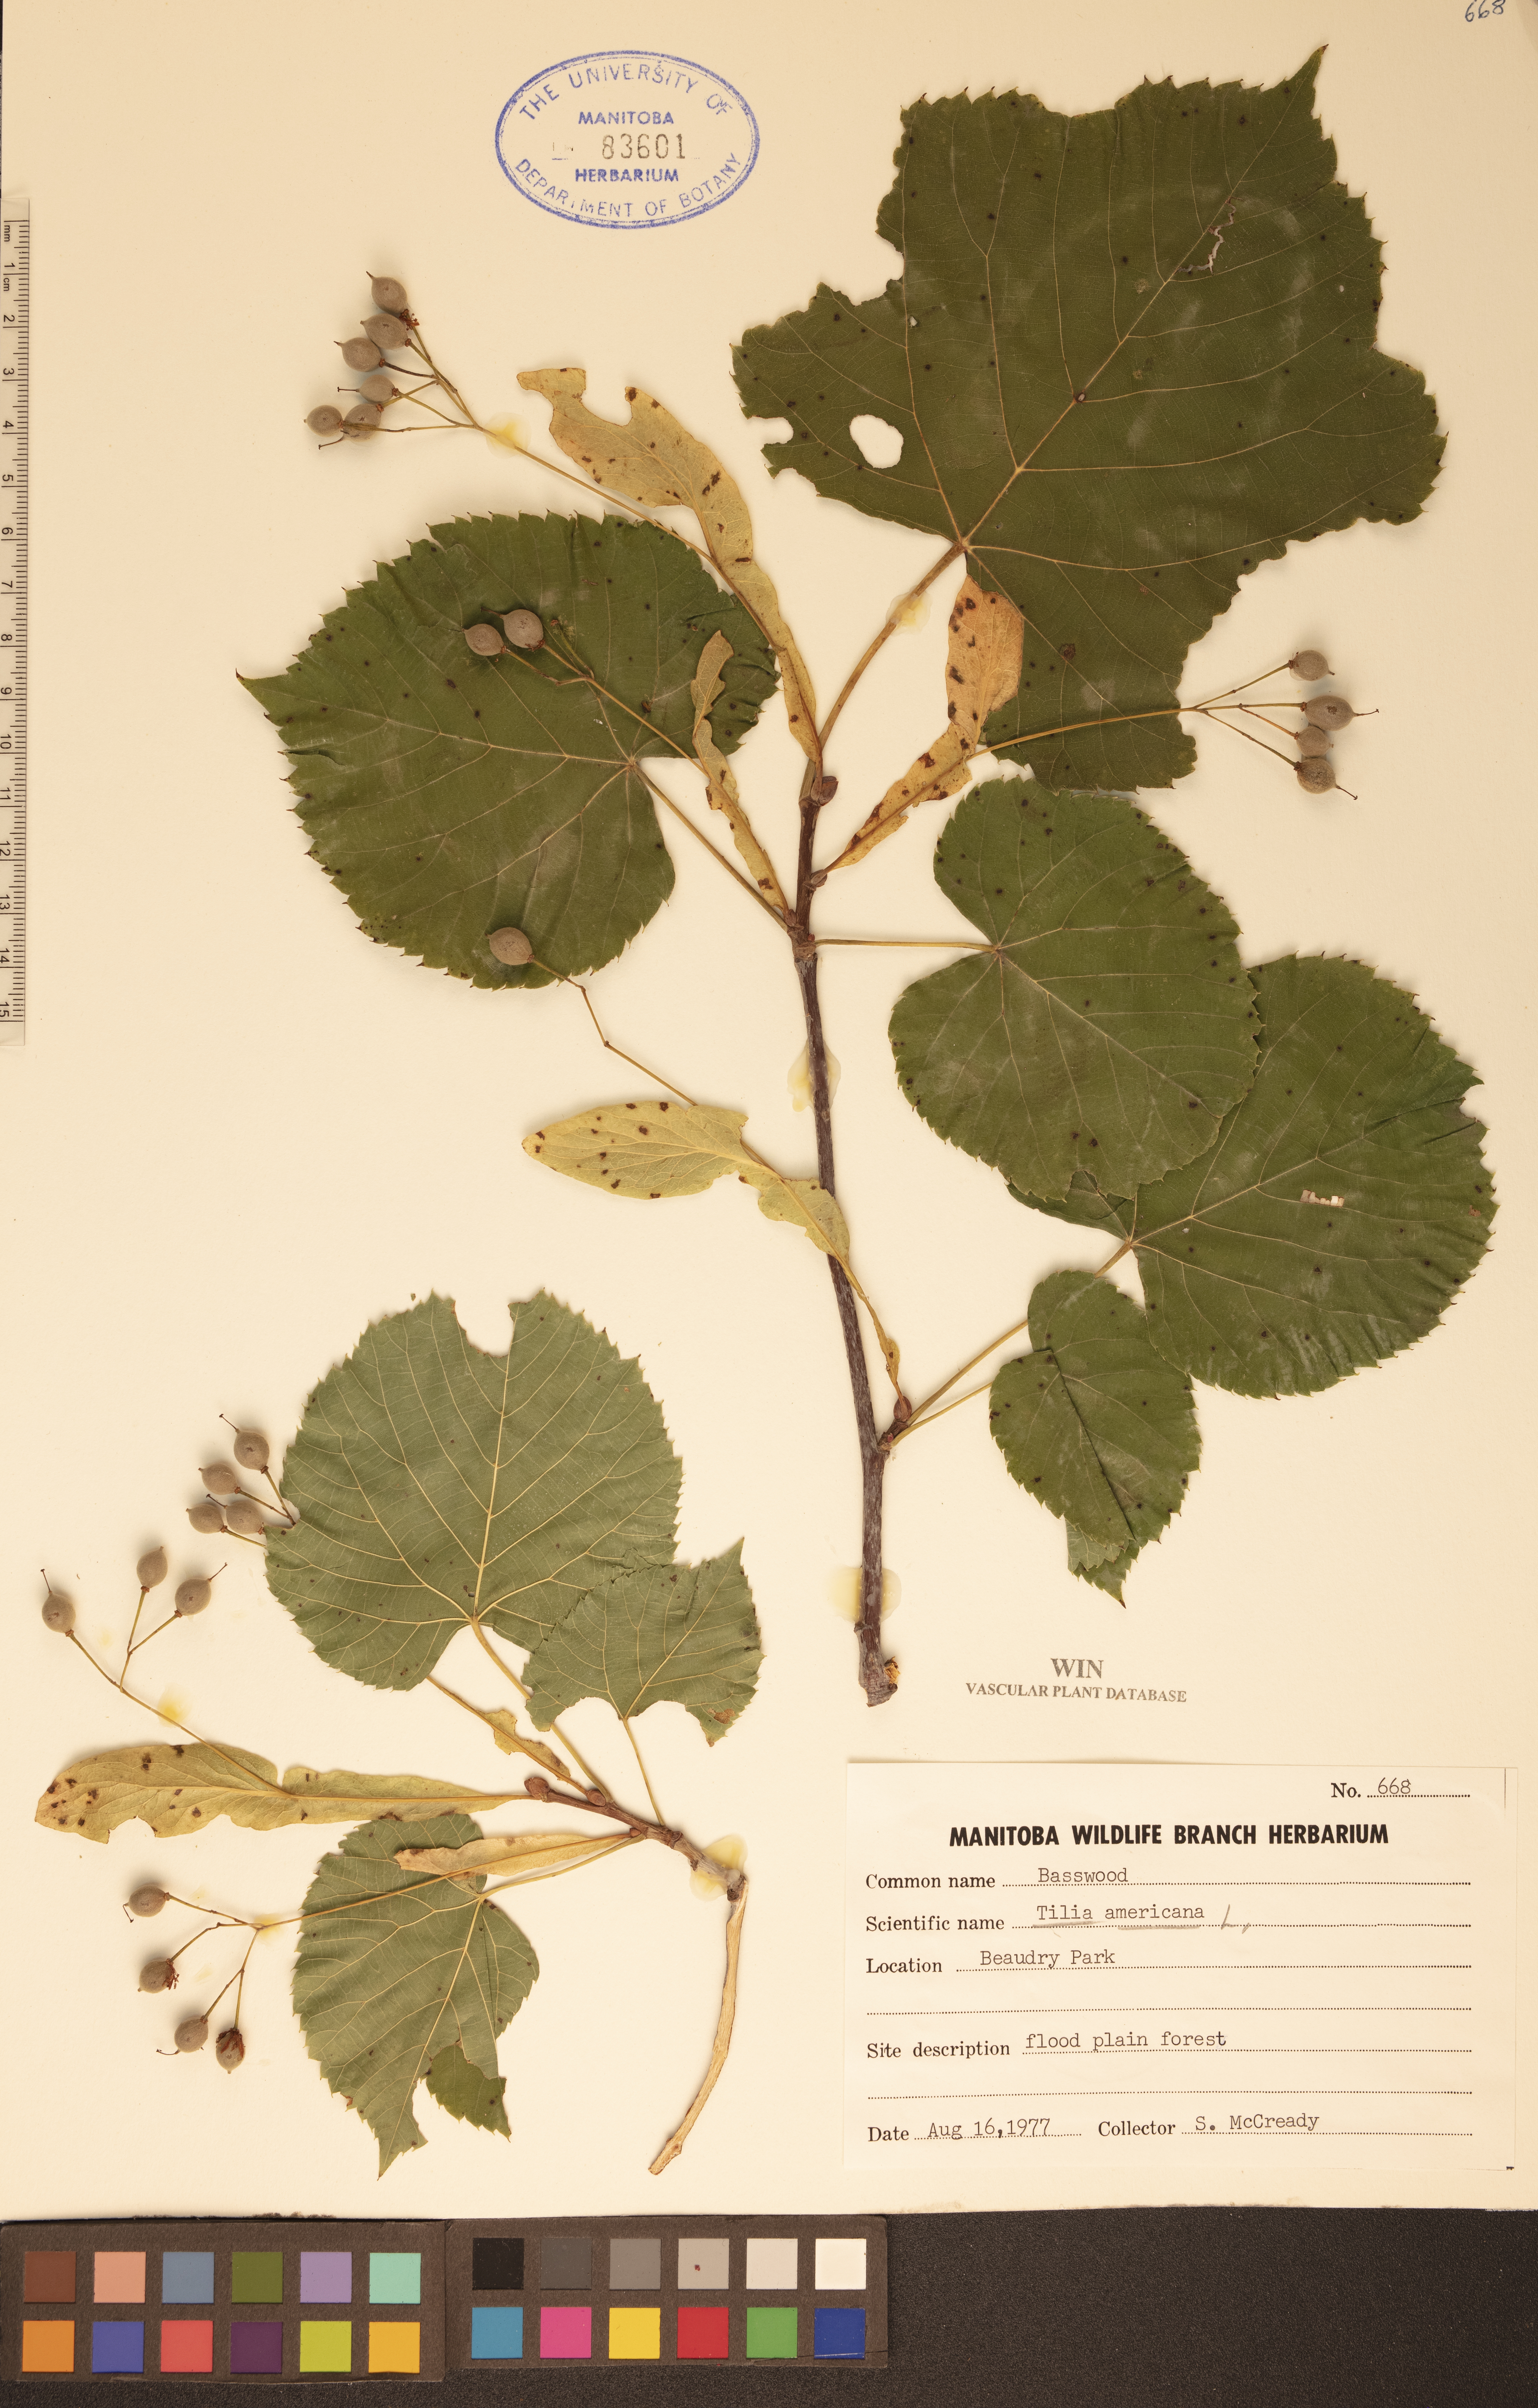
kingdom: Plantae
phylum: Tracheophyta
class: Magnoliopsida
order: Malvales
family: Malvaceae
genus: Tilia
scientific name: Tilia americana
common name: Basswood
